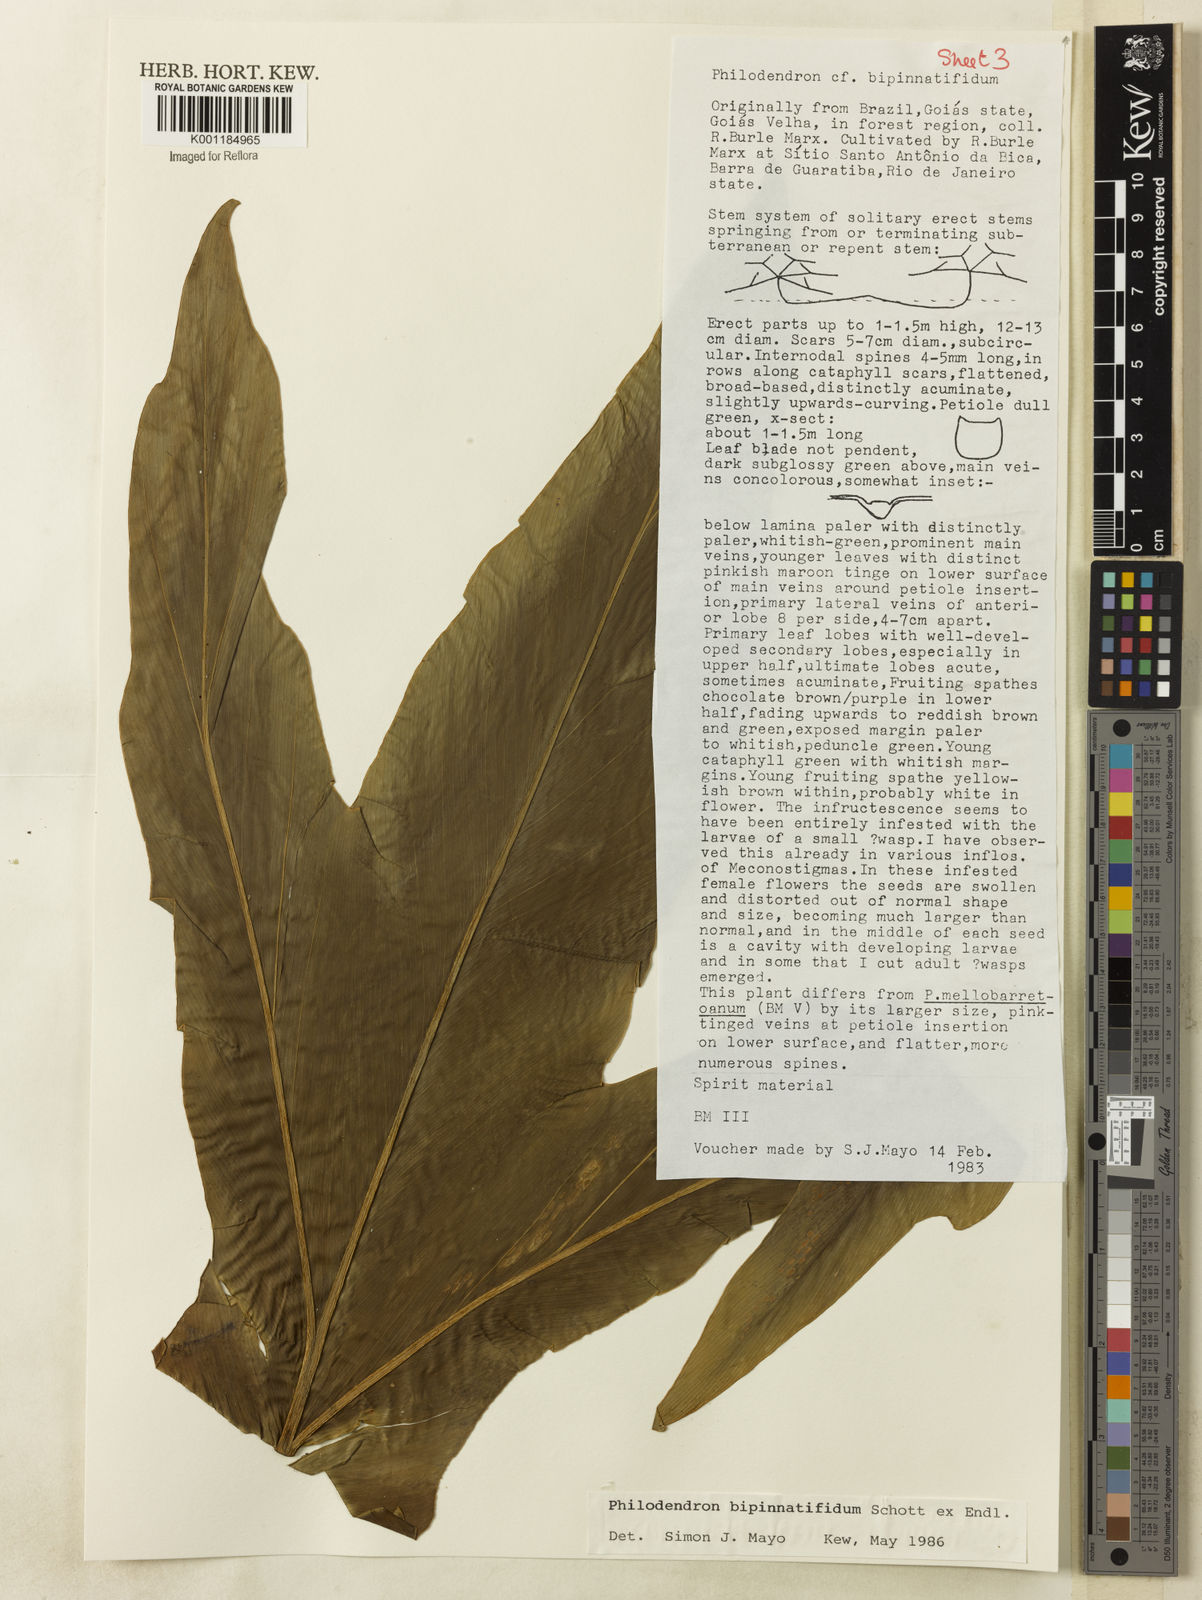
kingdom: Plantae
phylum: Tracheophyta
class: Liliopsida
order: Alismatales
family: Araceae
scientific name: Araceae
